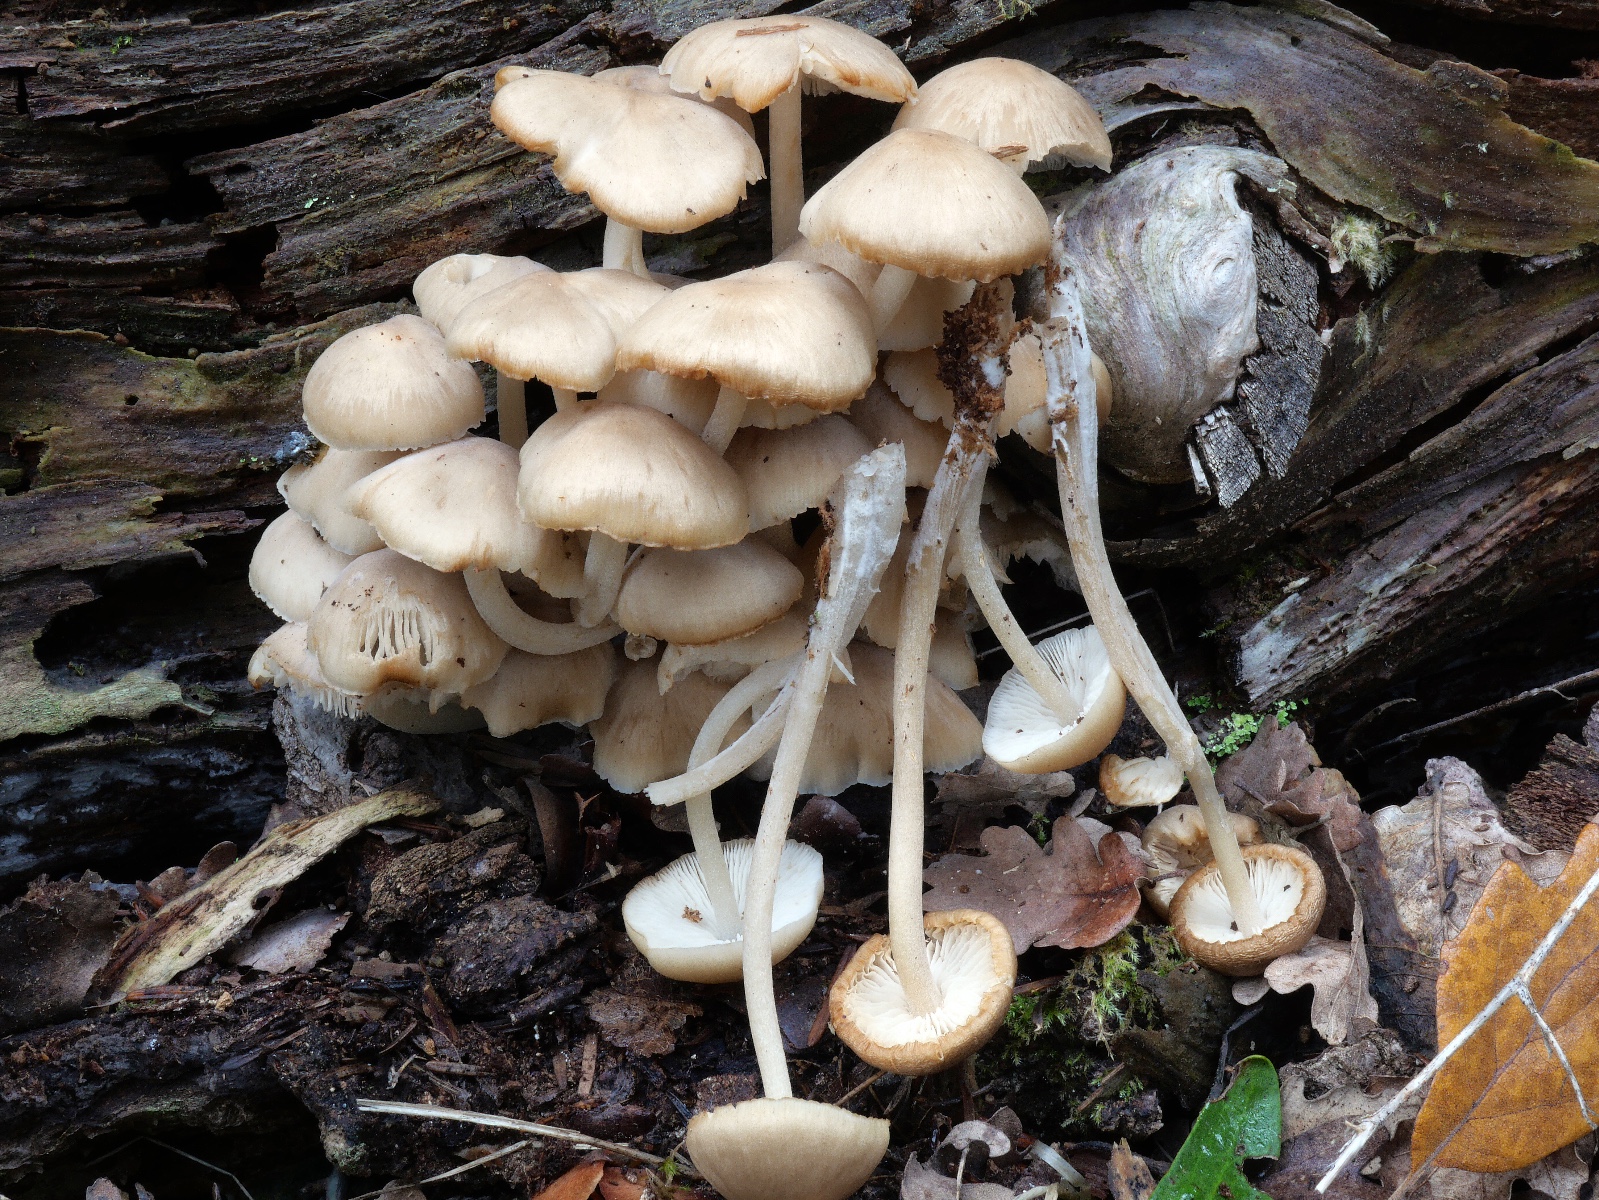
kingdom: Fungi
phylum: Basidiomycota
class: Agaricomycetes
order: Agaricales
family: Marasmiaceae
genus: Clitocybula
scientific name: Clitocybula lacerata
